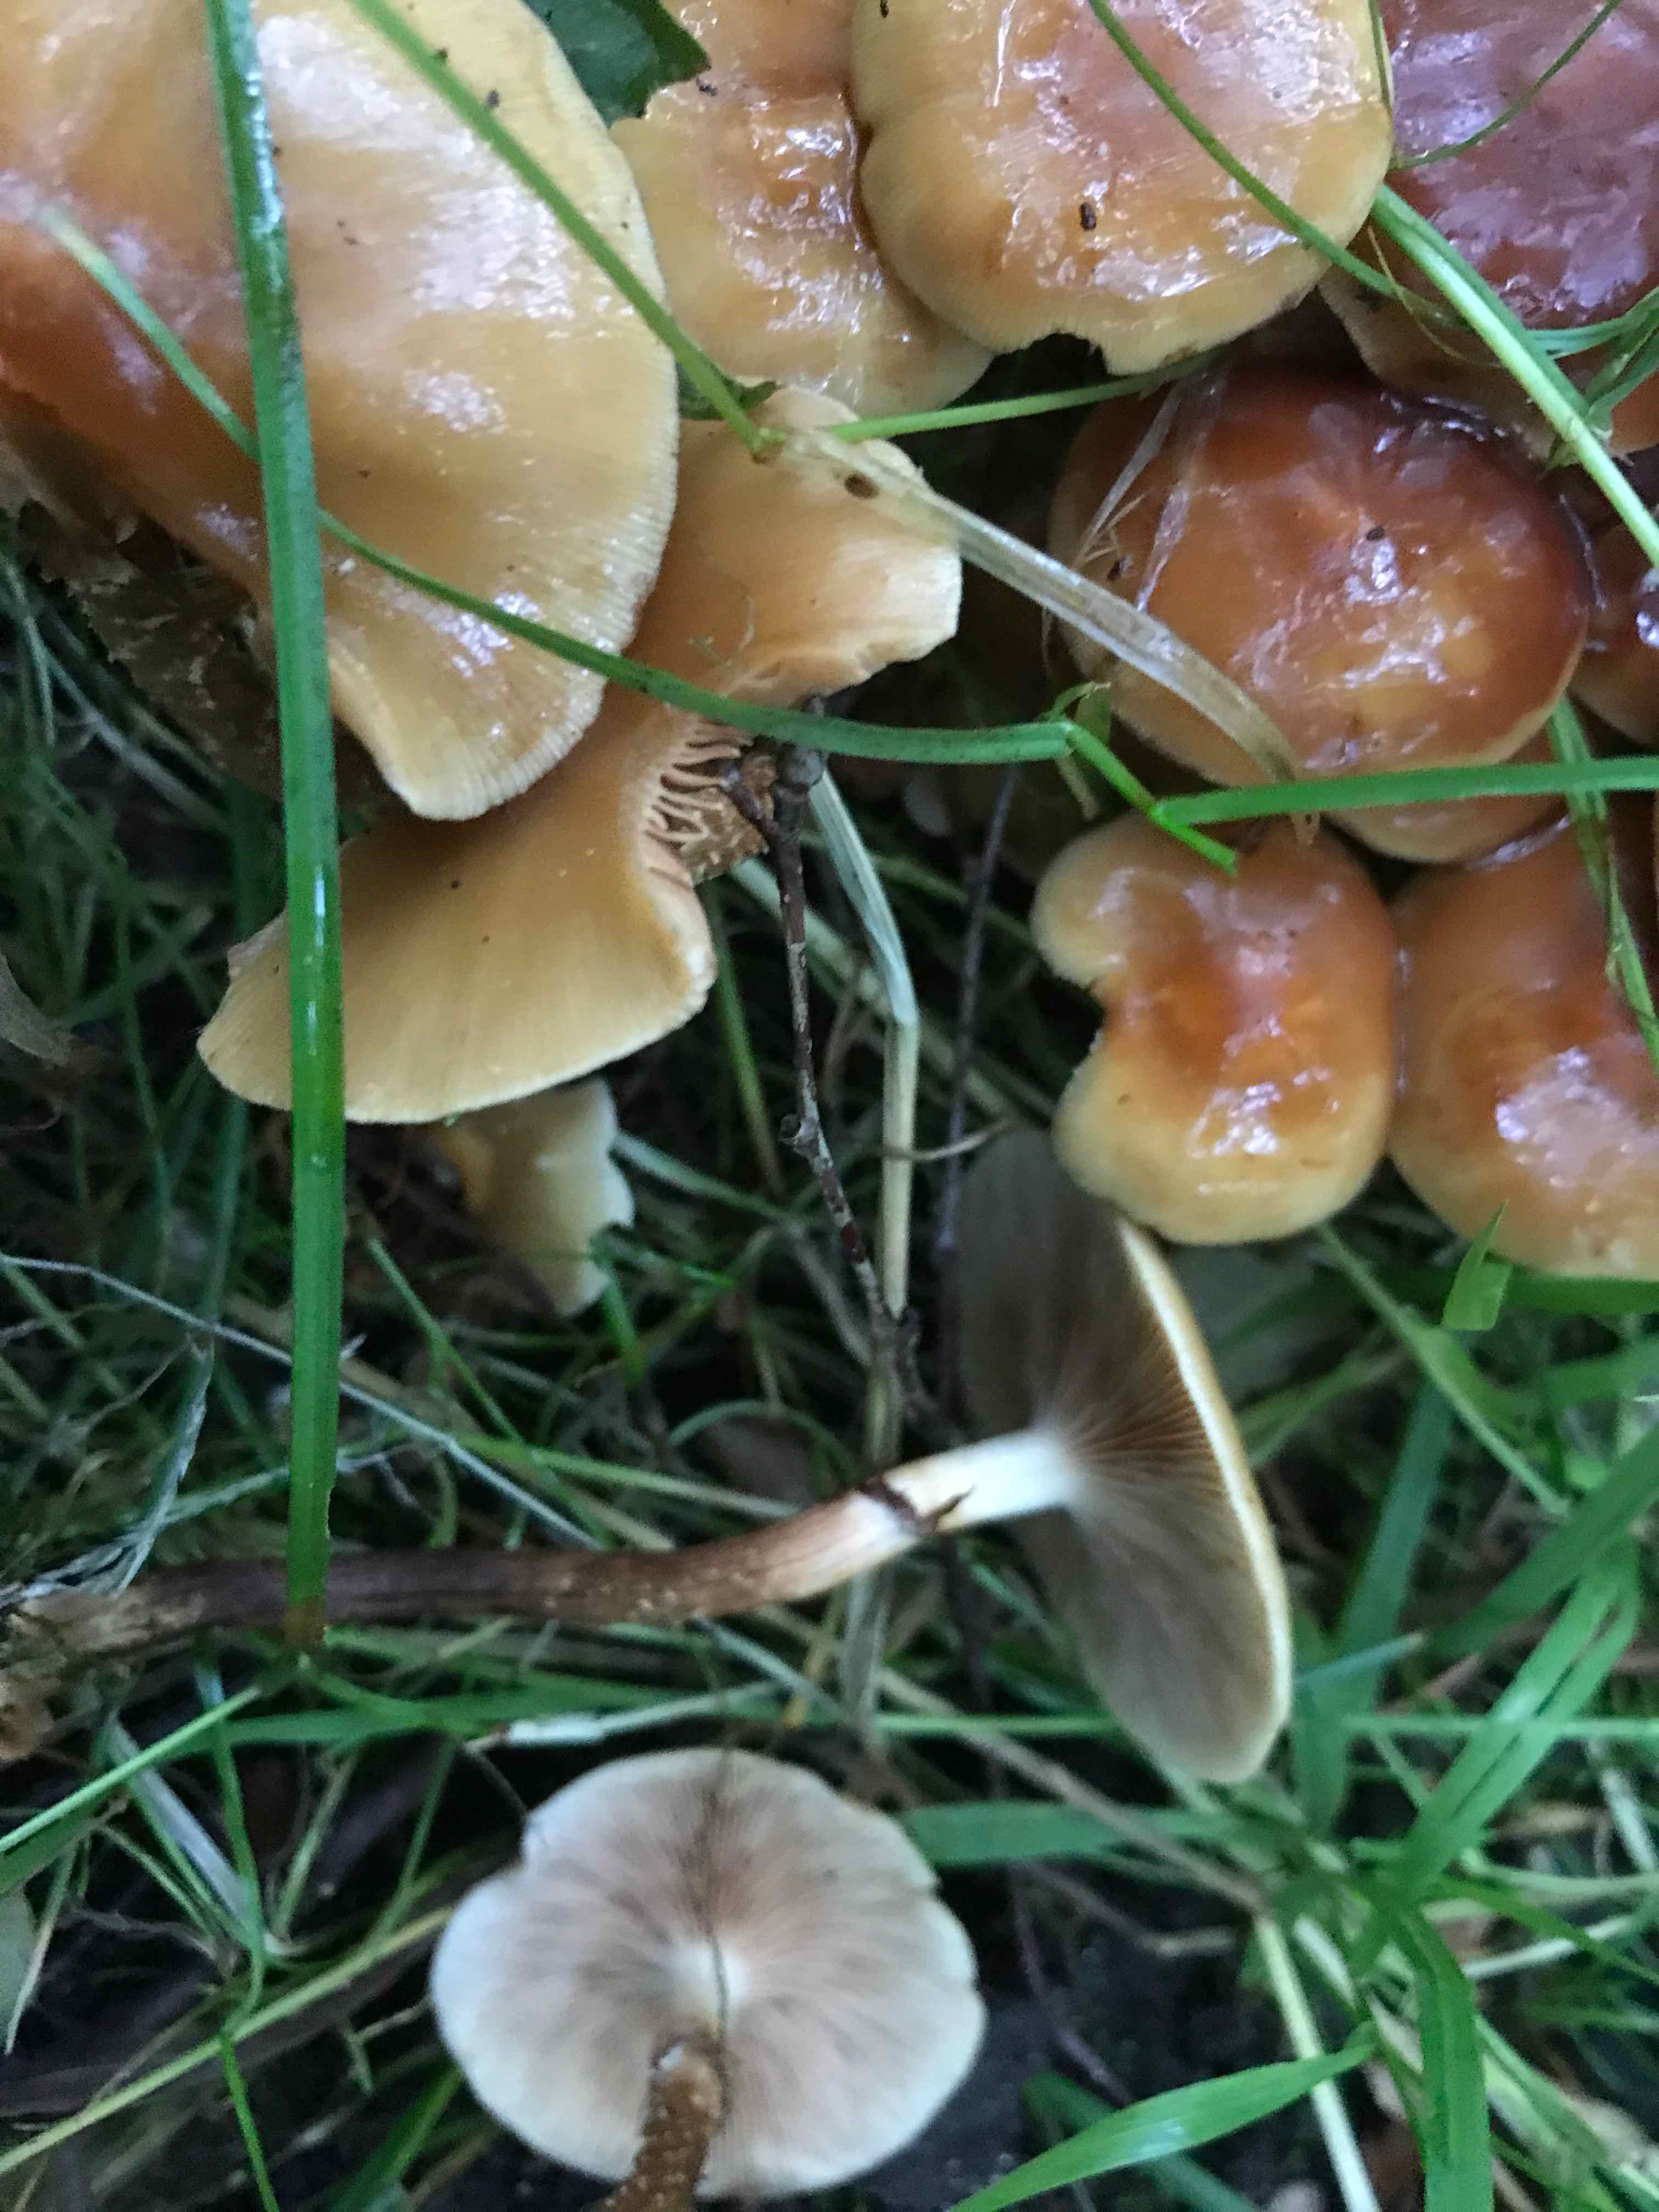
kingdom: Fungi
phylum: Basidiomycota
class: Agaricomycetes
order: Agaricales
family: Strophariaceae
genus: Kuehneromyces
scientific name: Kuehneromyces mutabilis
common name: foranderlig skælhat
